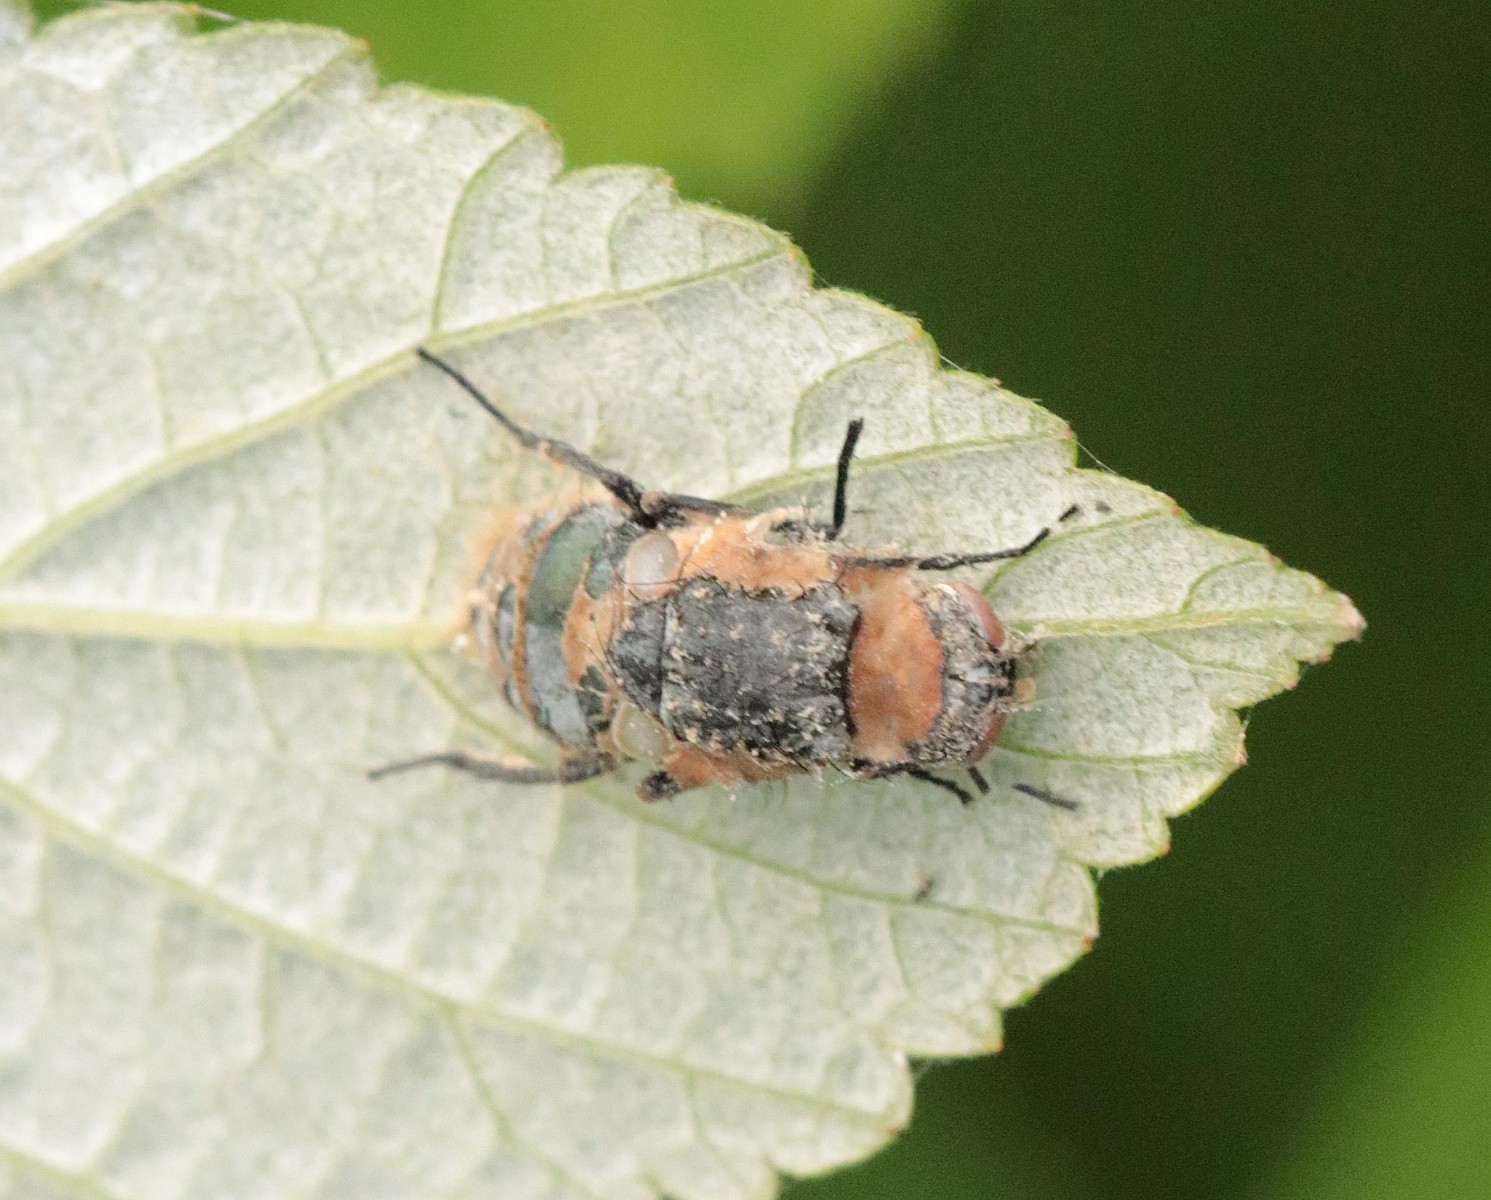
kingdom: Fungi
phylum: Entomophthoromycota
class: Entomophthoromycetes
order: Entomophthorales
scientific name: Entomophthorales
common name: flueskimmelordenen
